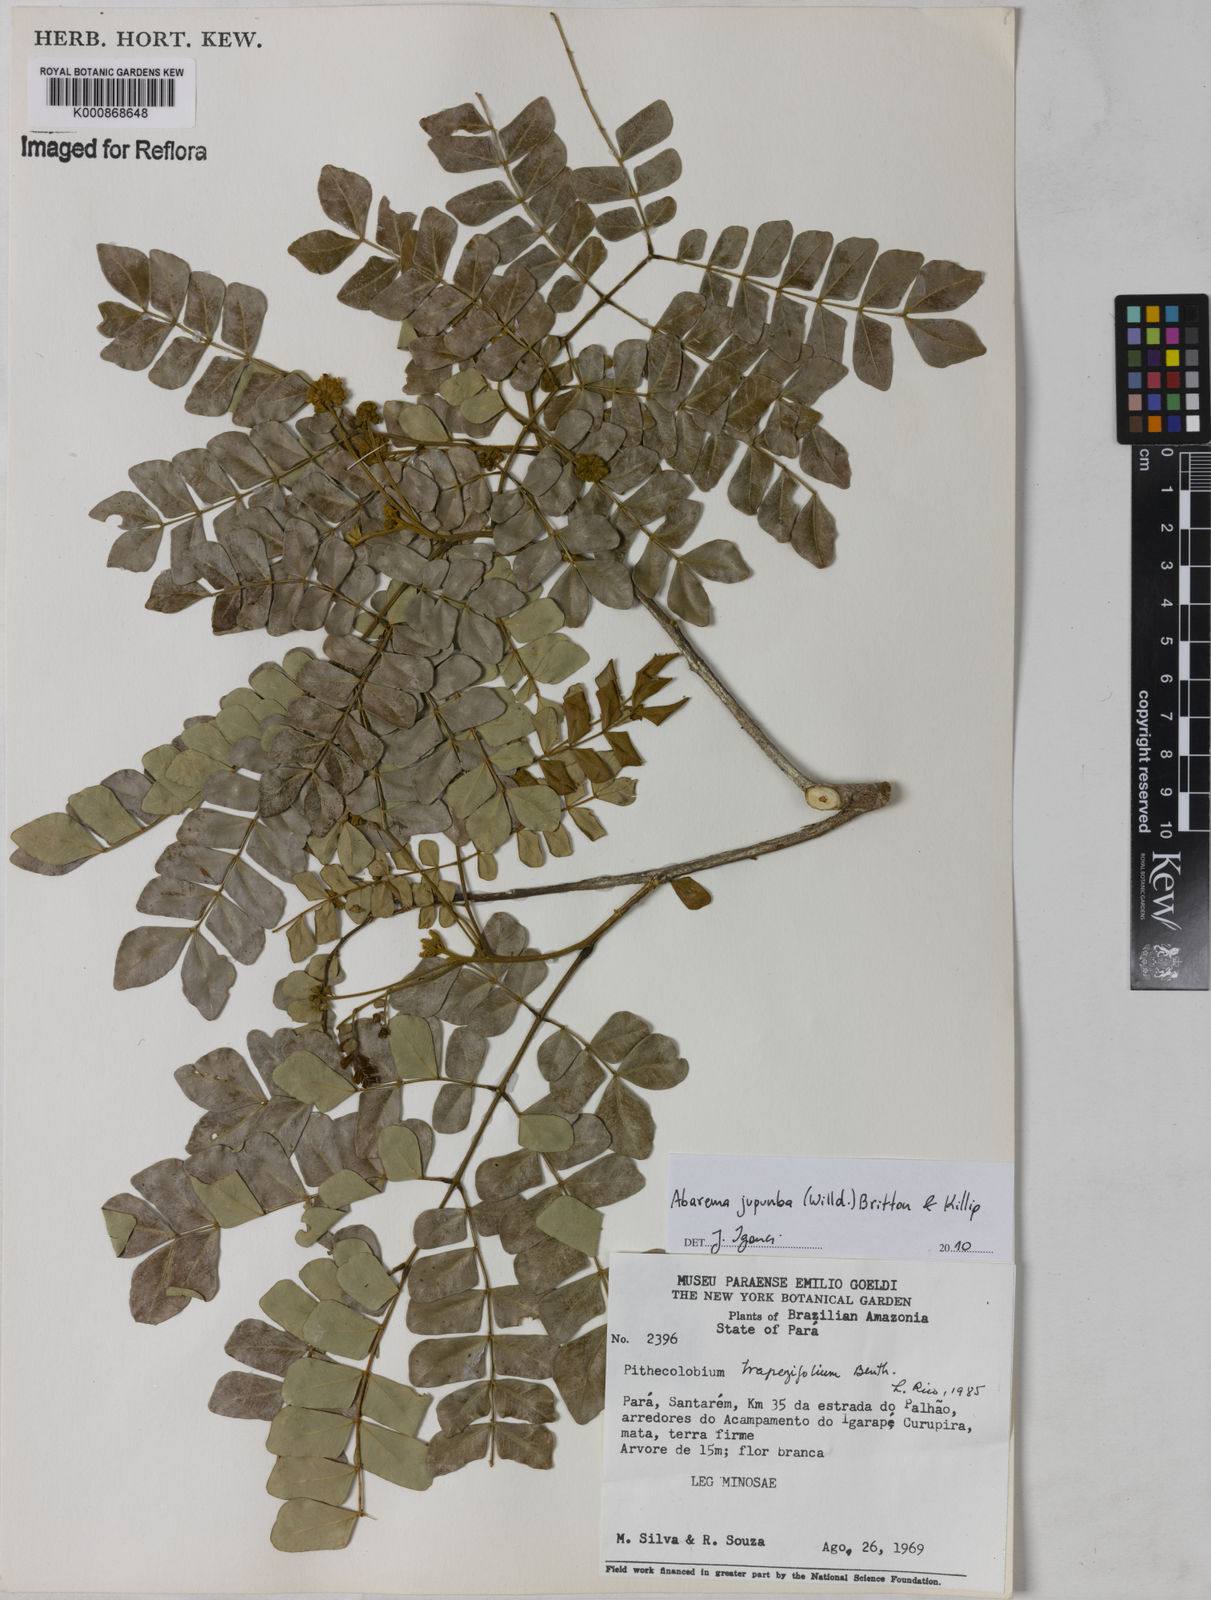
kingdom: Plantae
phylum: Tracheophyta
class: Magnoliopsida
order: Fabales
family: Fabaceae
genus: Jupunba
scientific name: Jupunba trapezifolia
